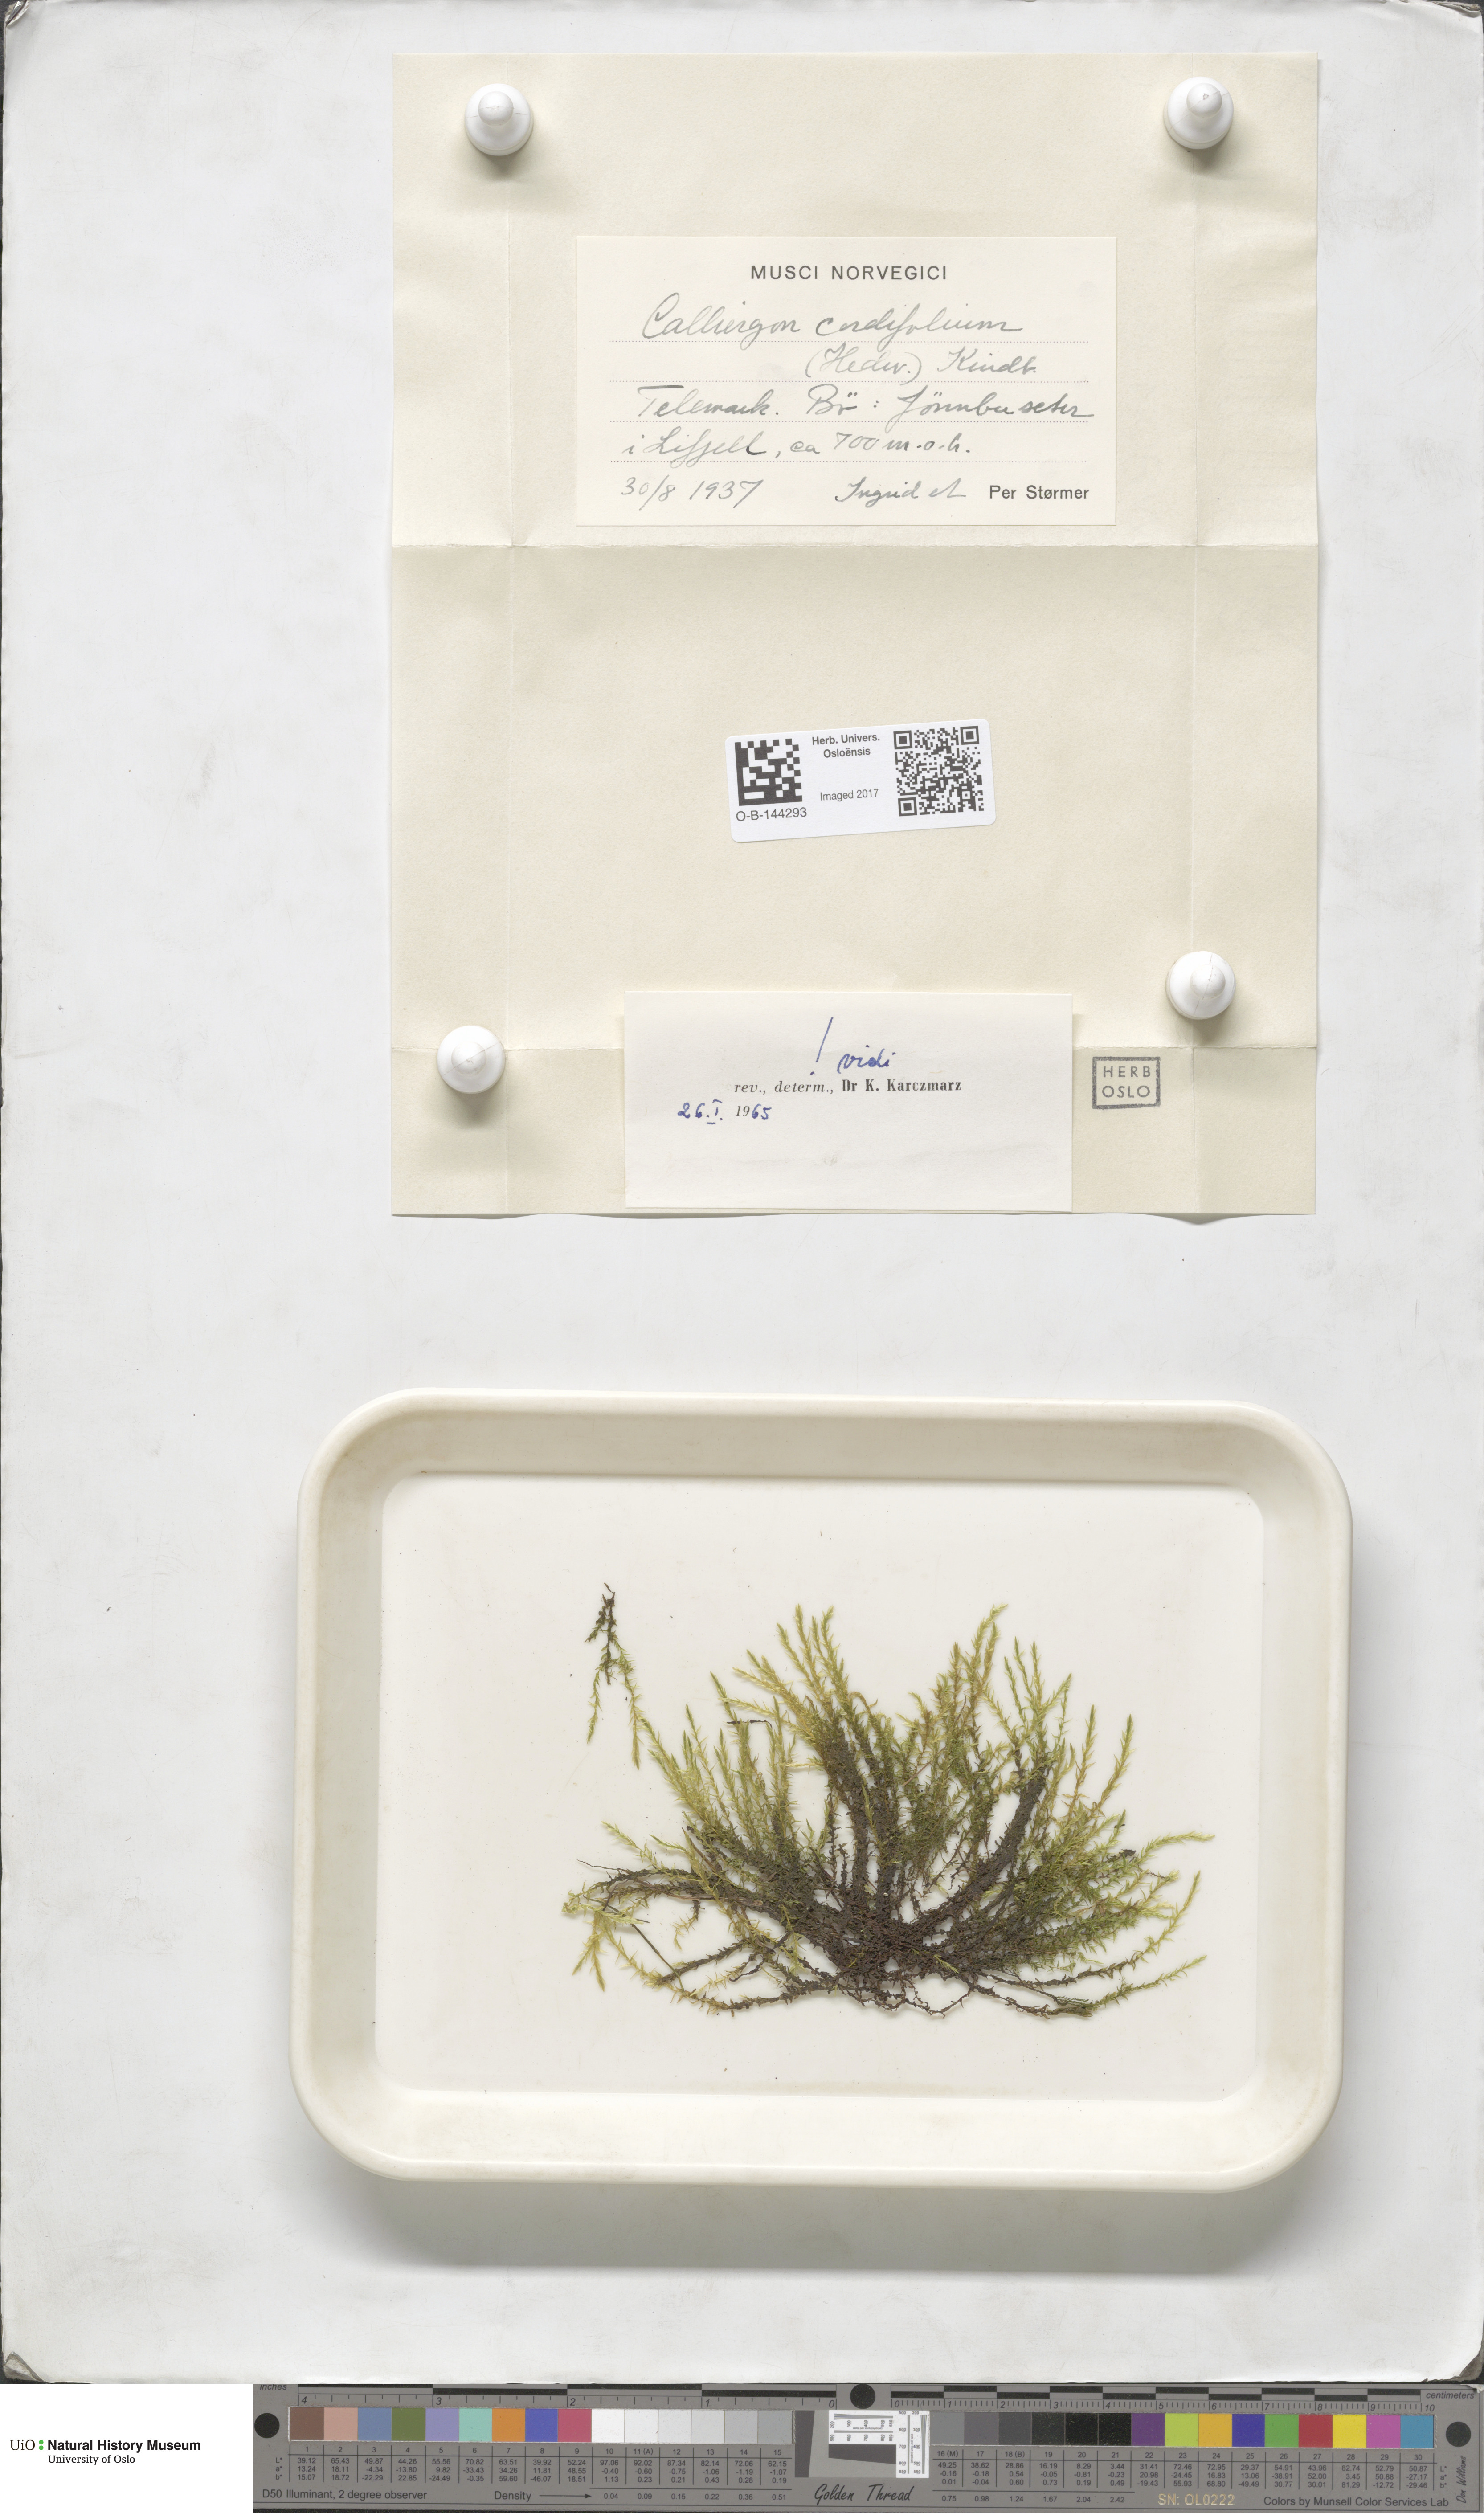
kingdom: Plantae
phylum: Bryophyta
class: Bryopsida
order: Hypnales
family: Calliergonaceae
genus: Calliergon
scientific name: Calliergon cordifolium
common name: Heart-leaved spear moss
